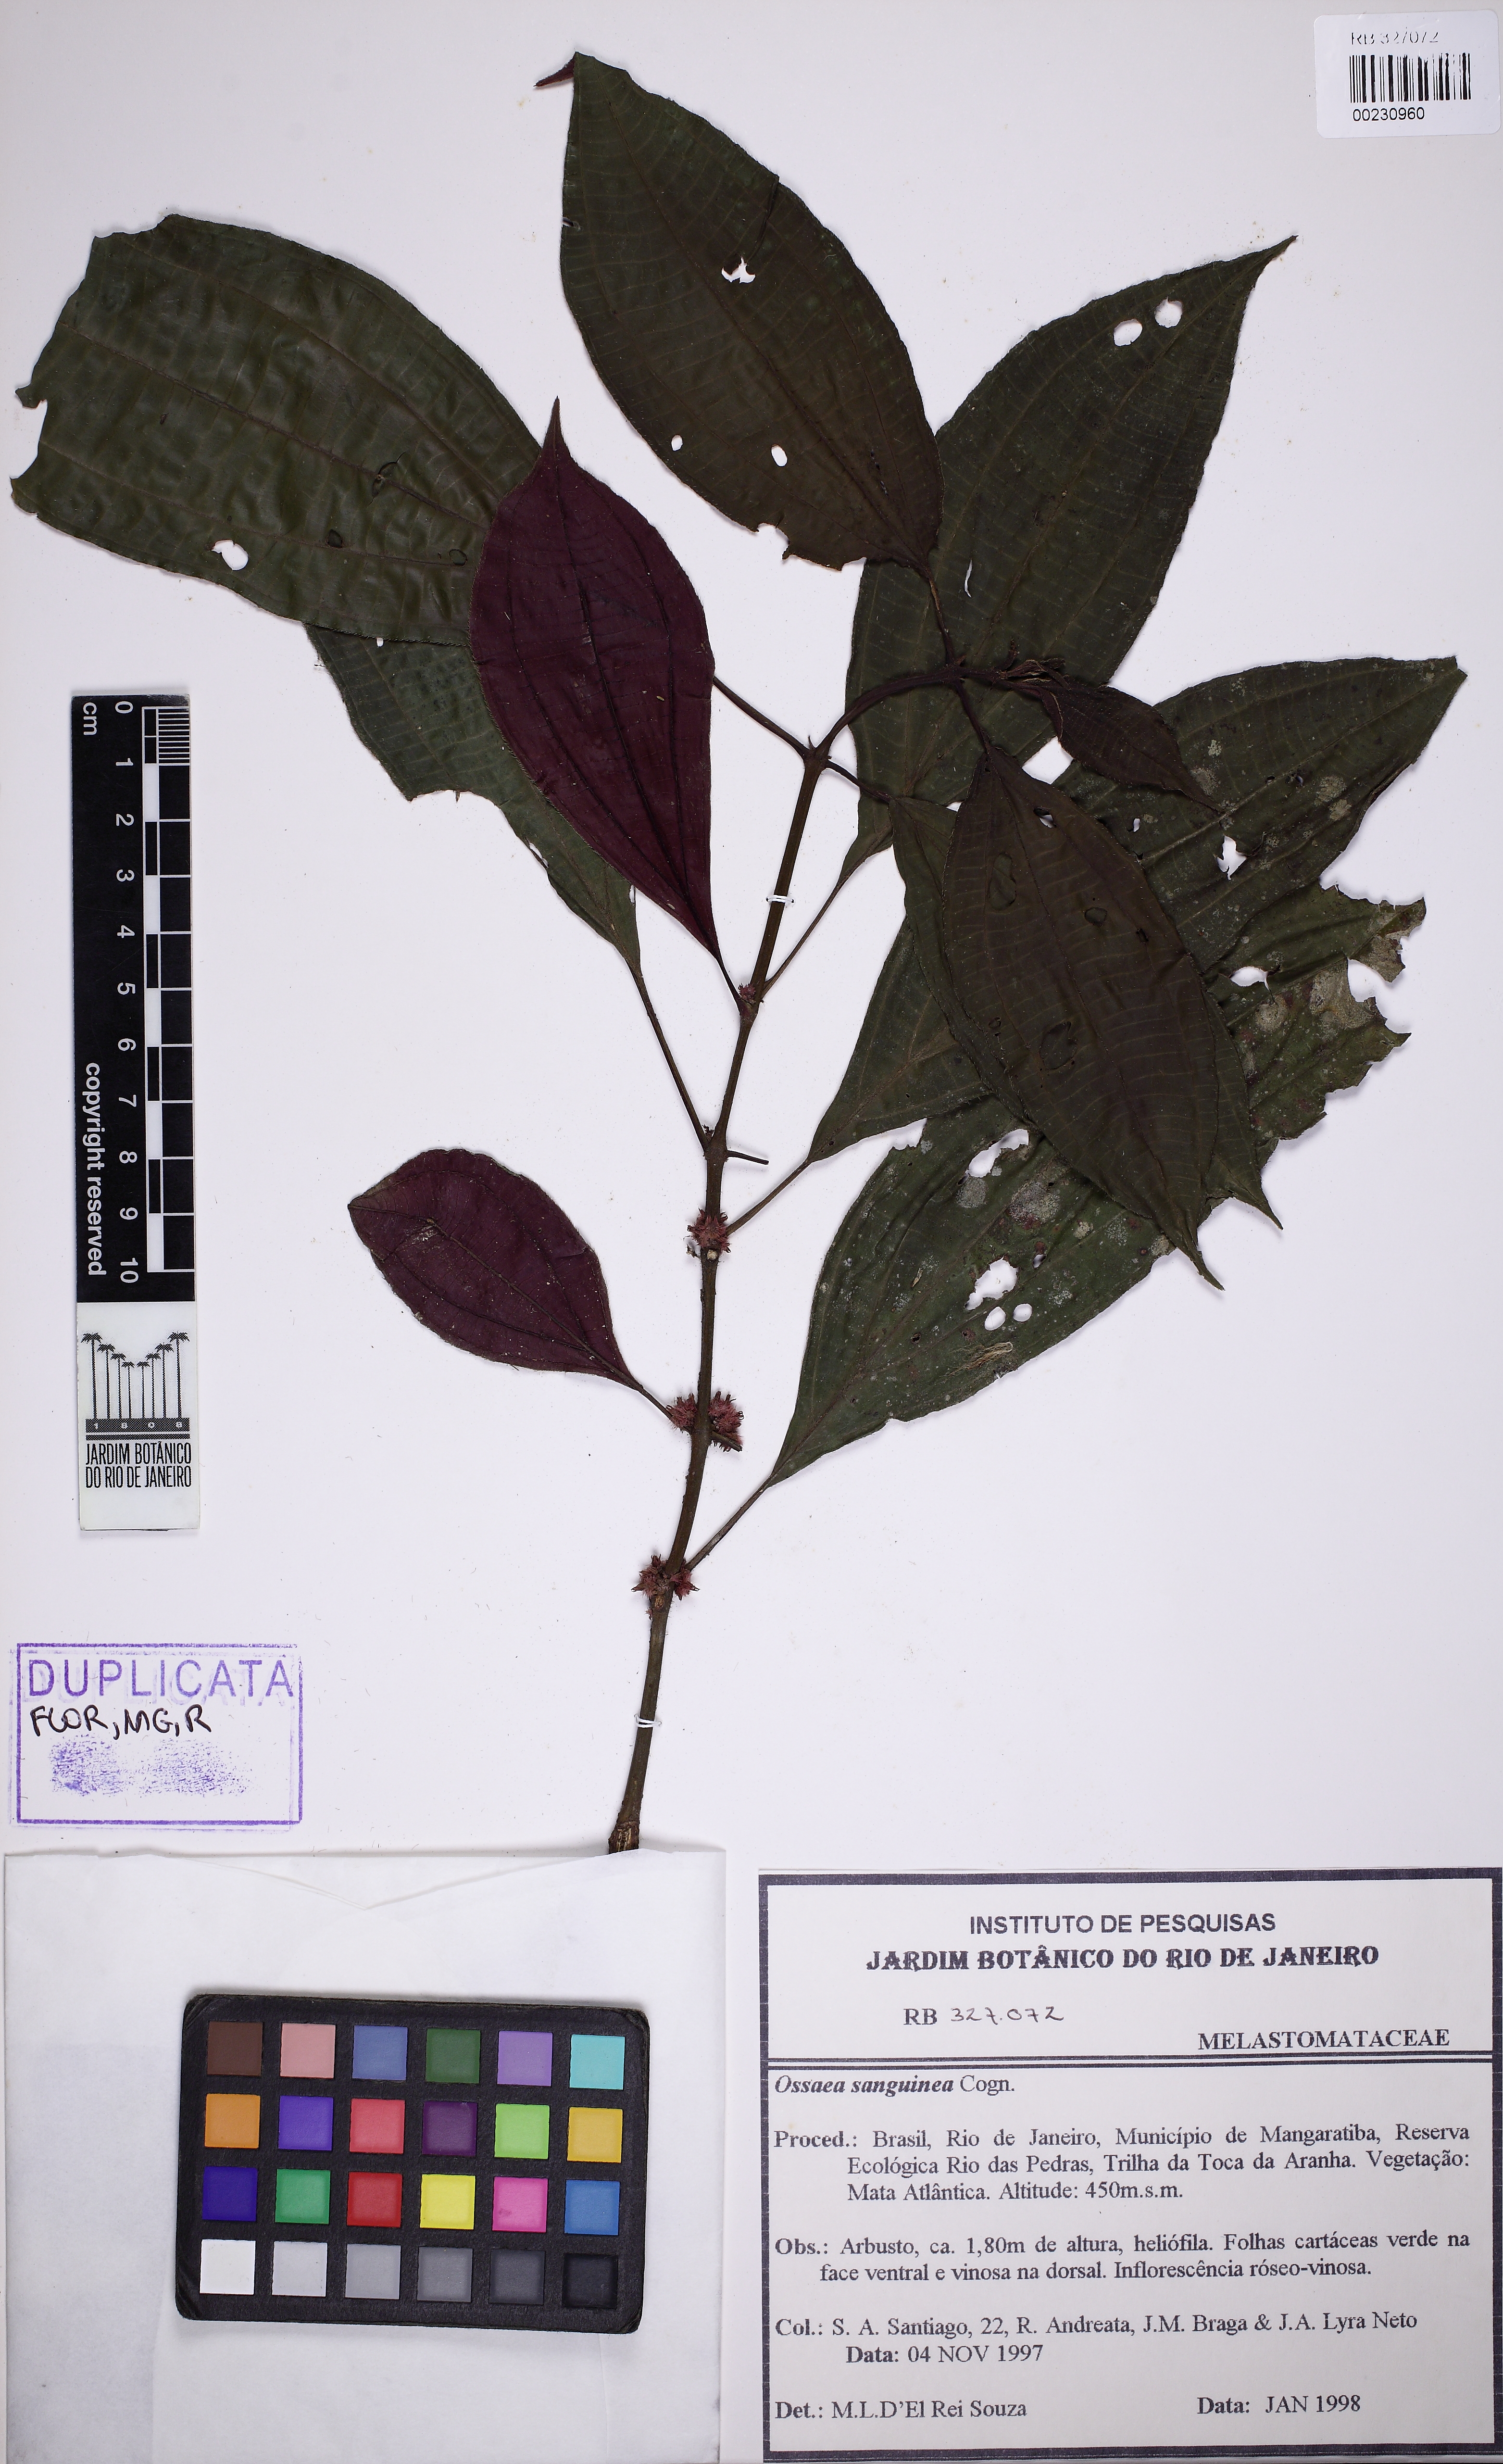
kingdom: Plantae
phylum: Tracheophyta
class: Magnoliopsida
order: Myrtales
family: Melastomataceae
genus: Miconia
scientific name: Miconia secunsanguinea
